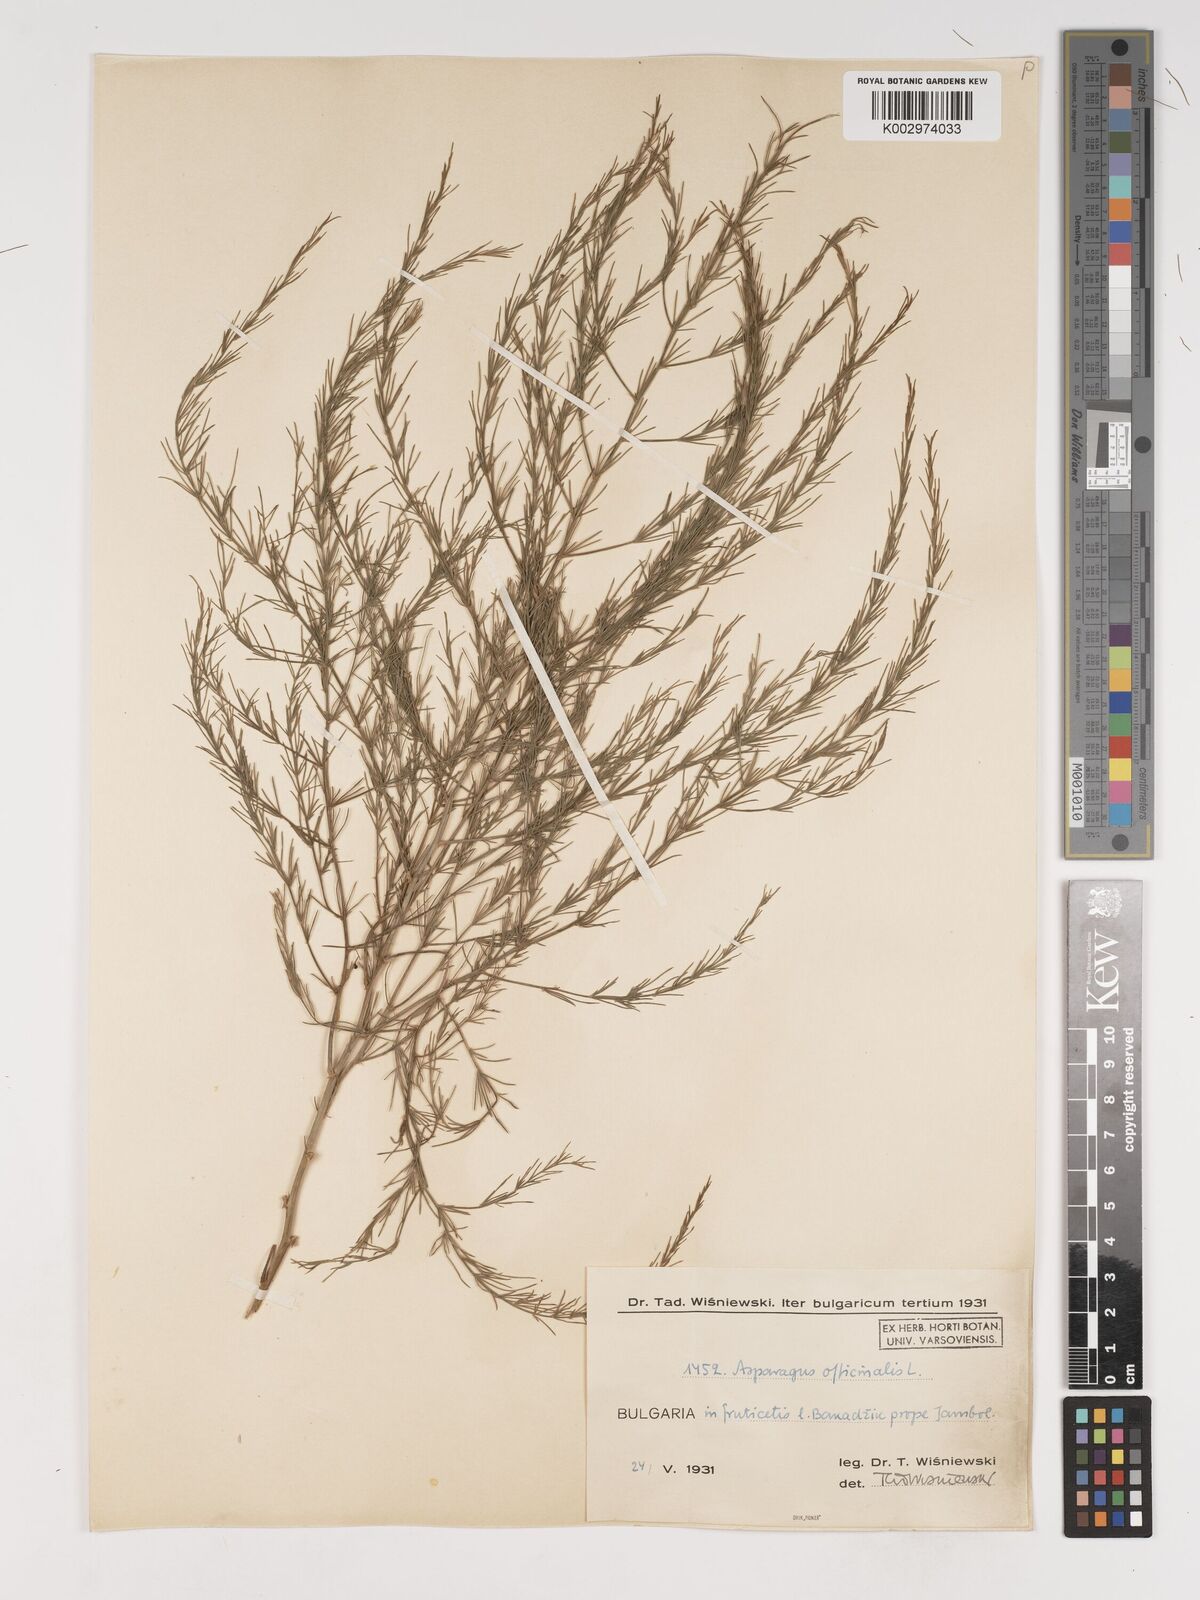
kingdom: Plantae
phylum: Tracheophyta
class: Liliopsida
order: Asparagales
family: Asparagaceae
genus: Asparagus
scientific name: Asparagus officinalis
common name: Garden asparagus
